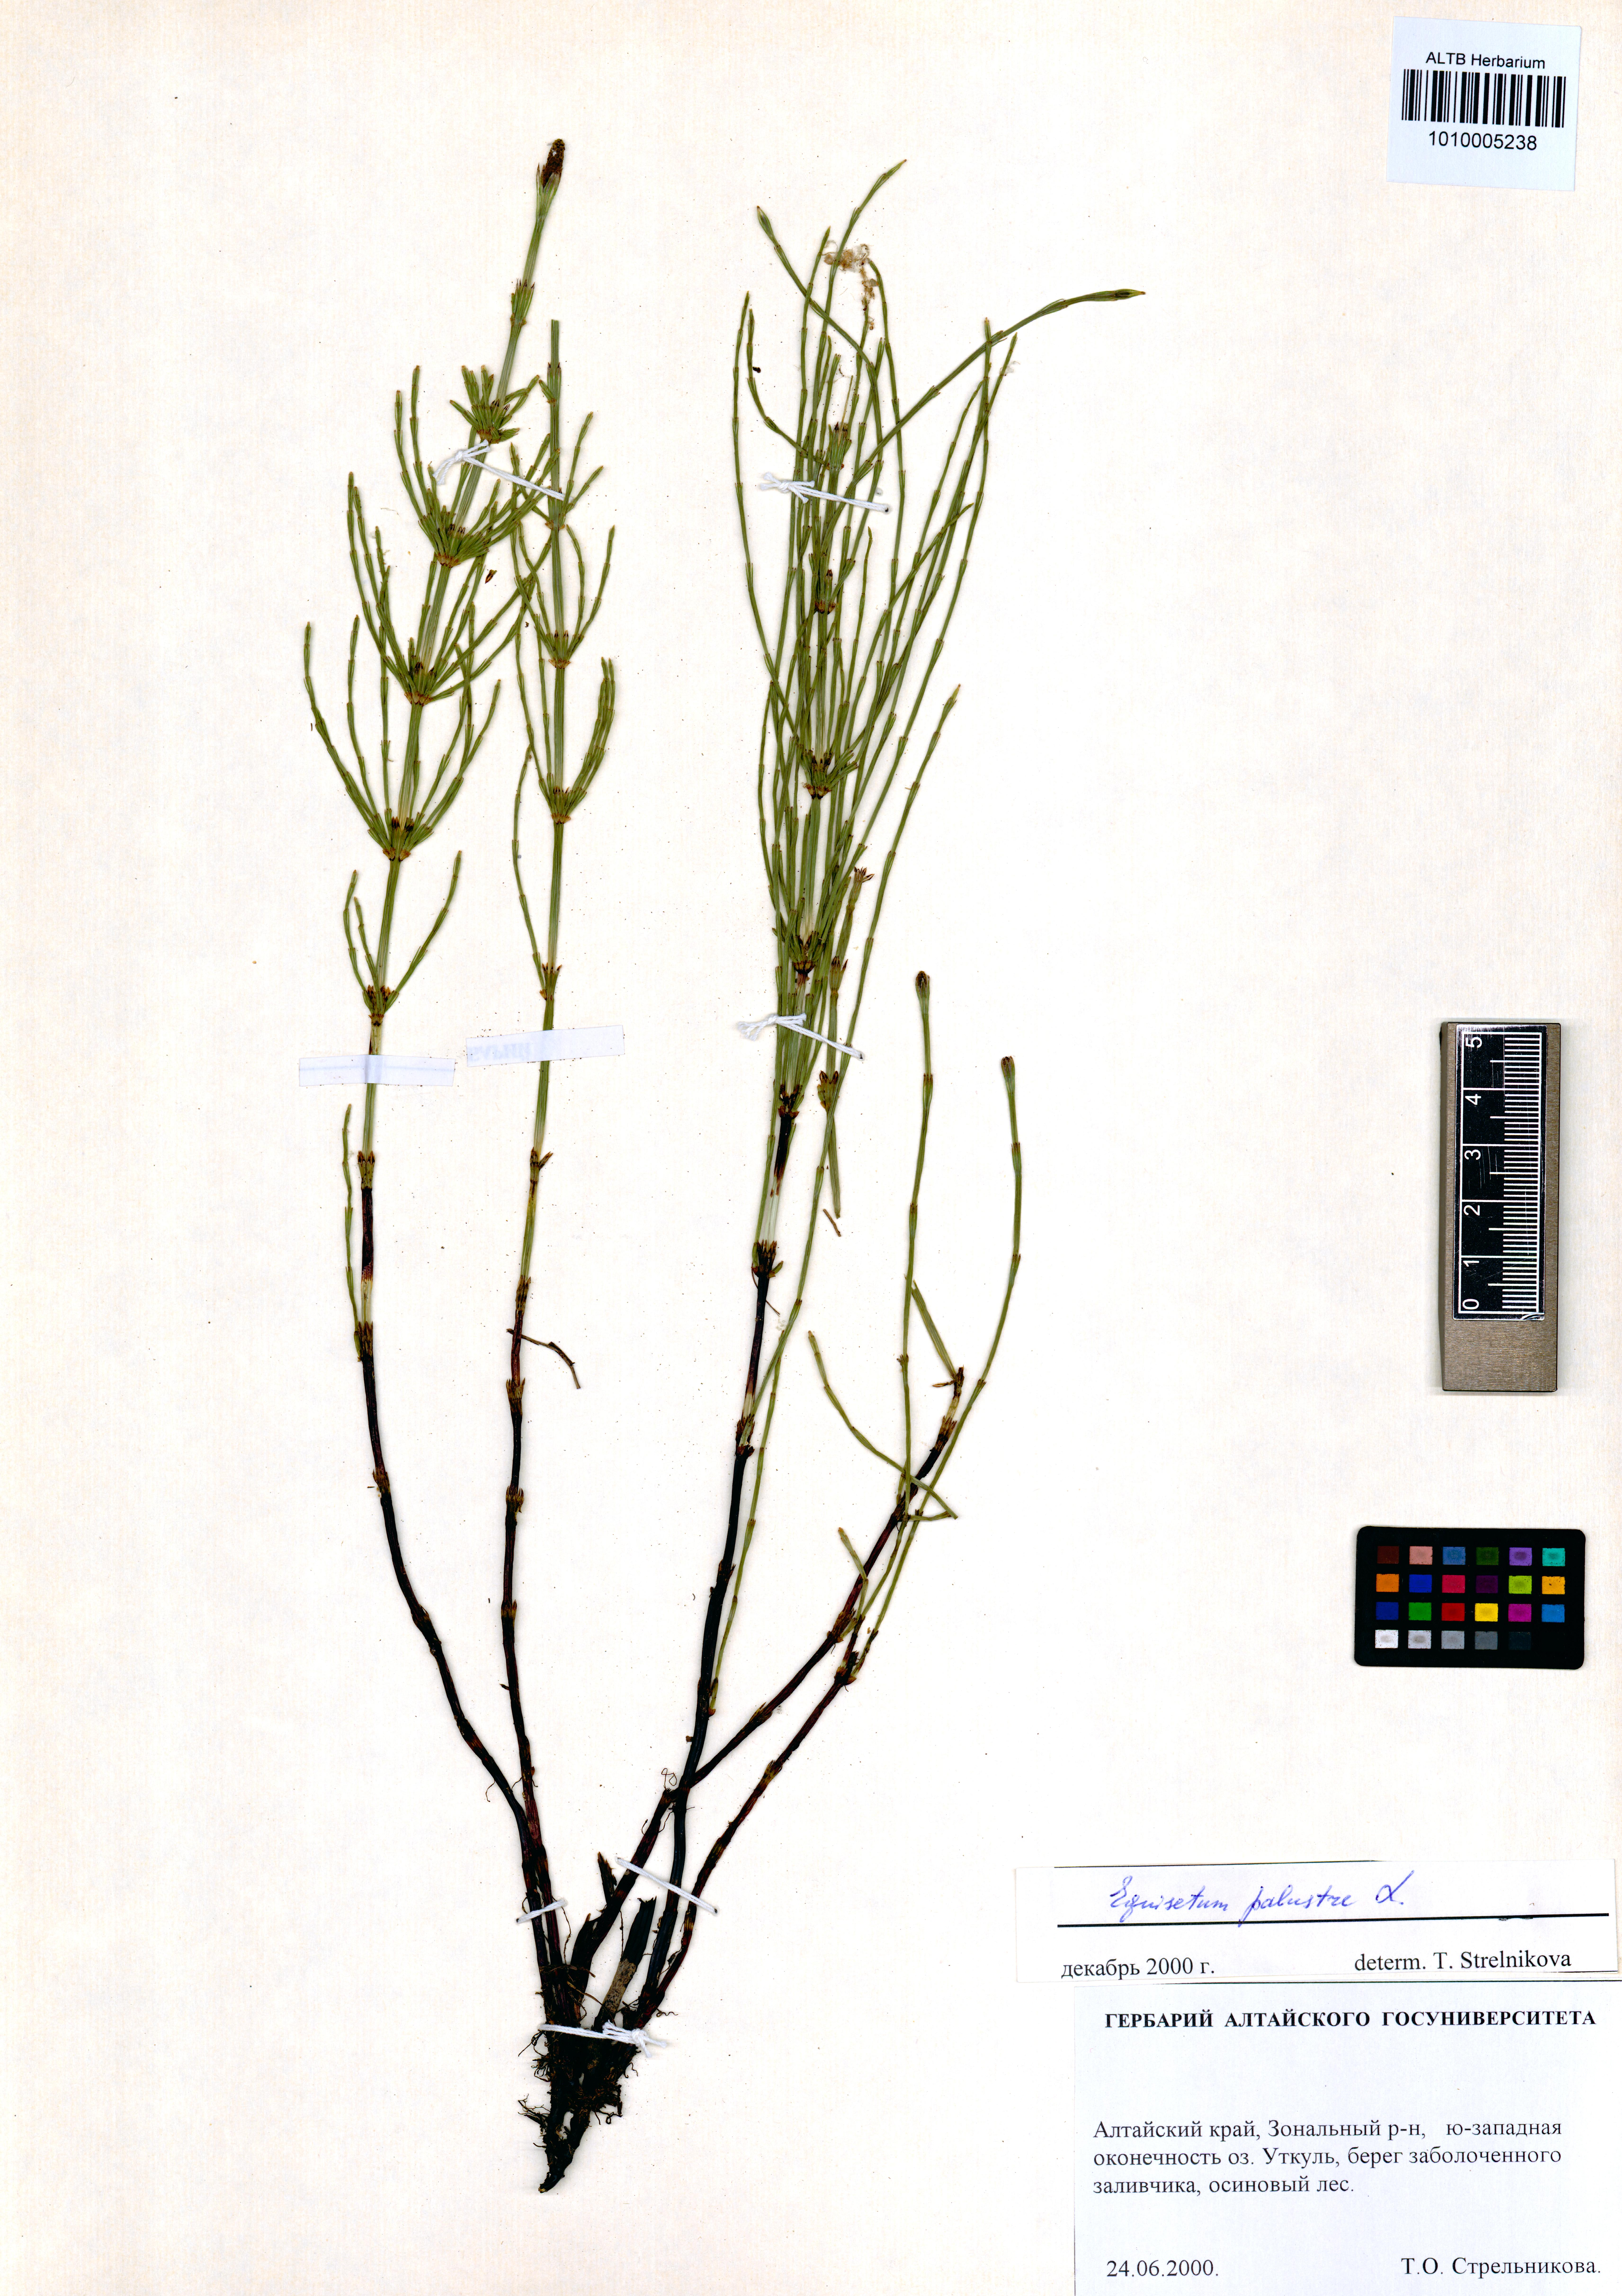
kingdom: Plantae
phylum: Tracheophyta
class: Polypodiopsida
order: Equisetales
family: Equisetaceae
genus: Equisetum
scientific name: Equisetum palustre
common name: Marsh horsetail
